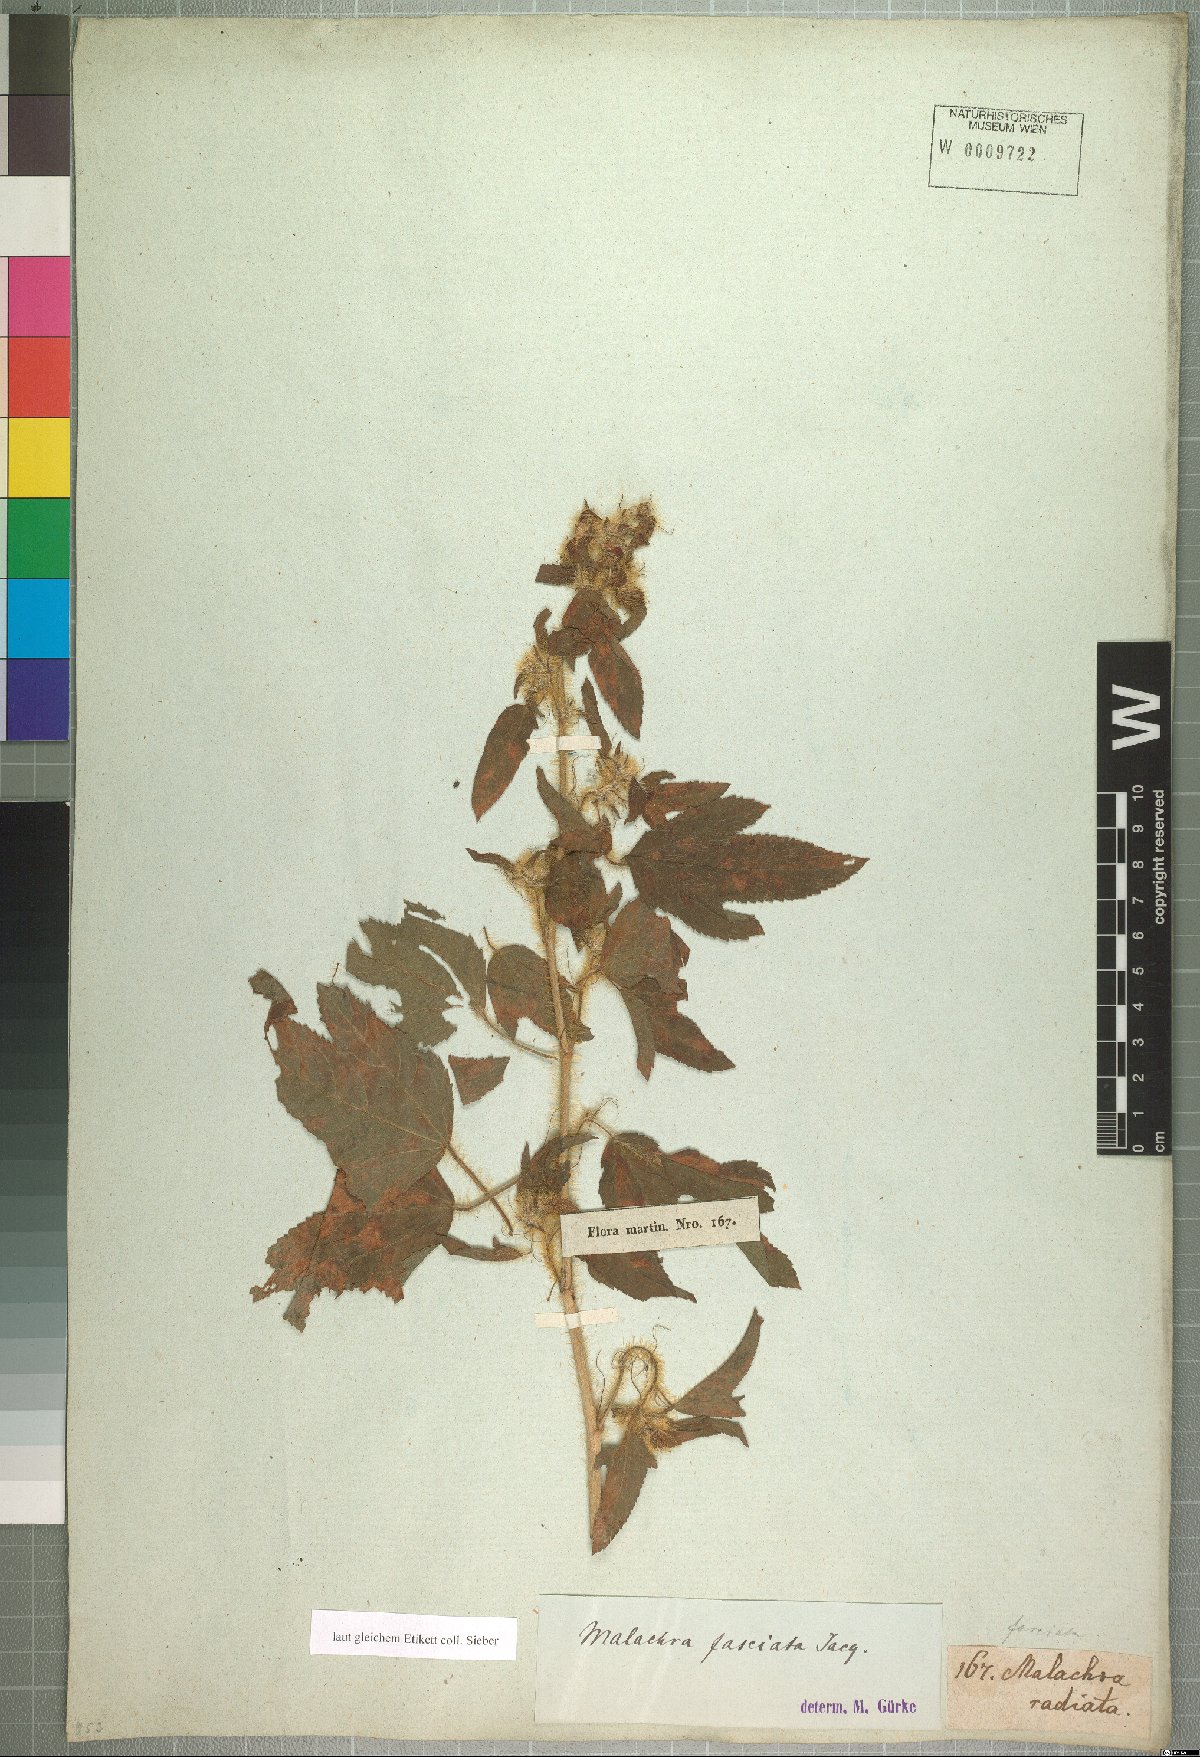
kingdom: Plantae
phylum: Tracheophyta
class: Magnoliopsida
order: Malvales
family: Malvaceae
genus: Malachra
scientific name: Malachra fasciata
